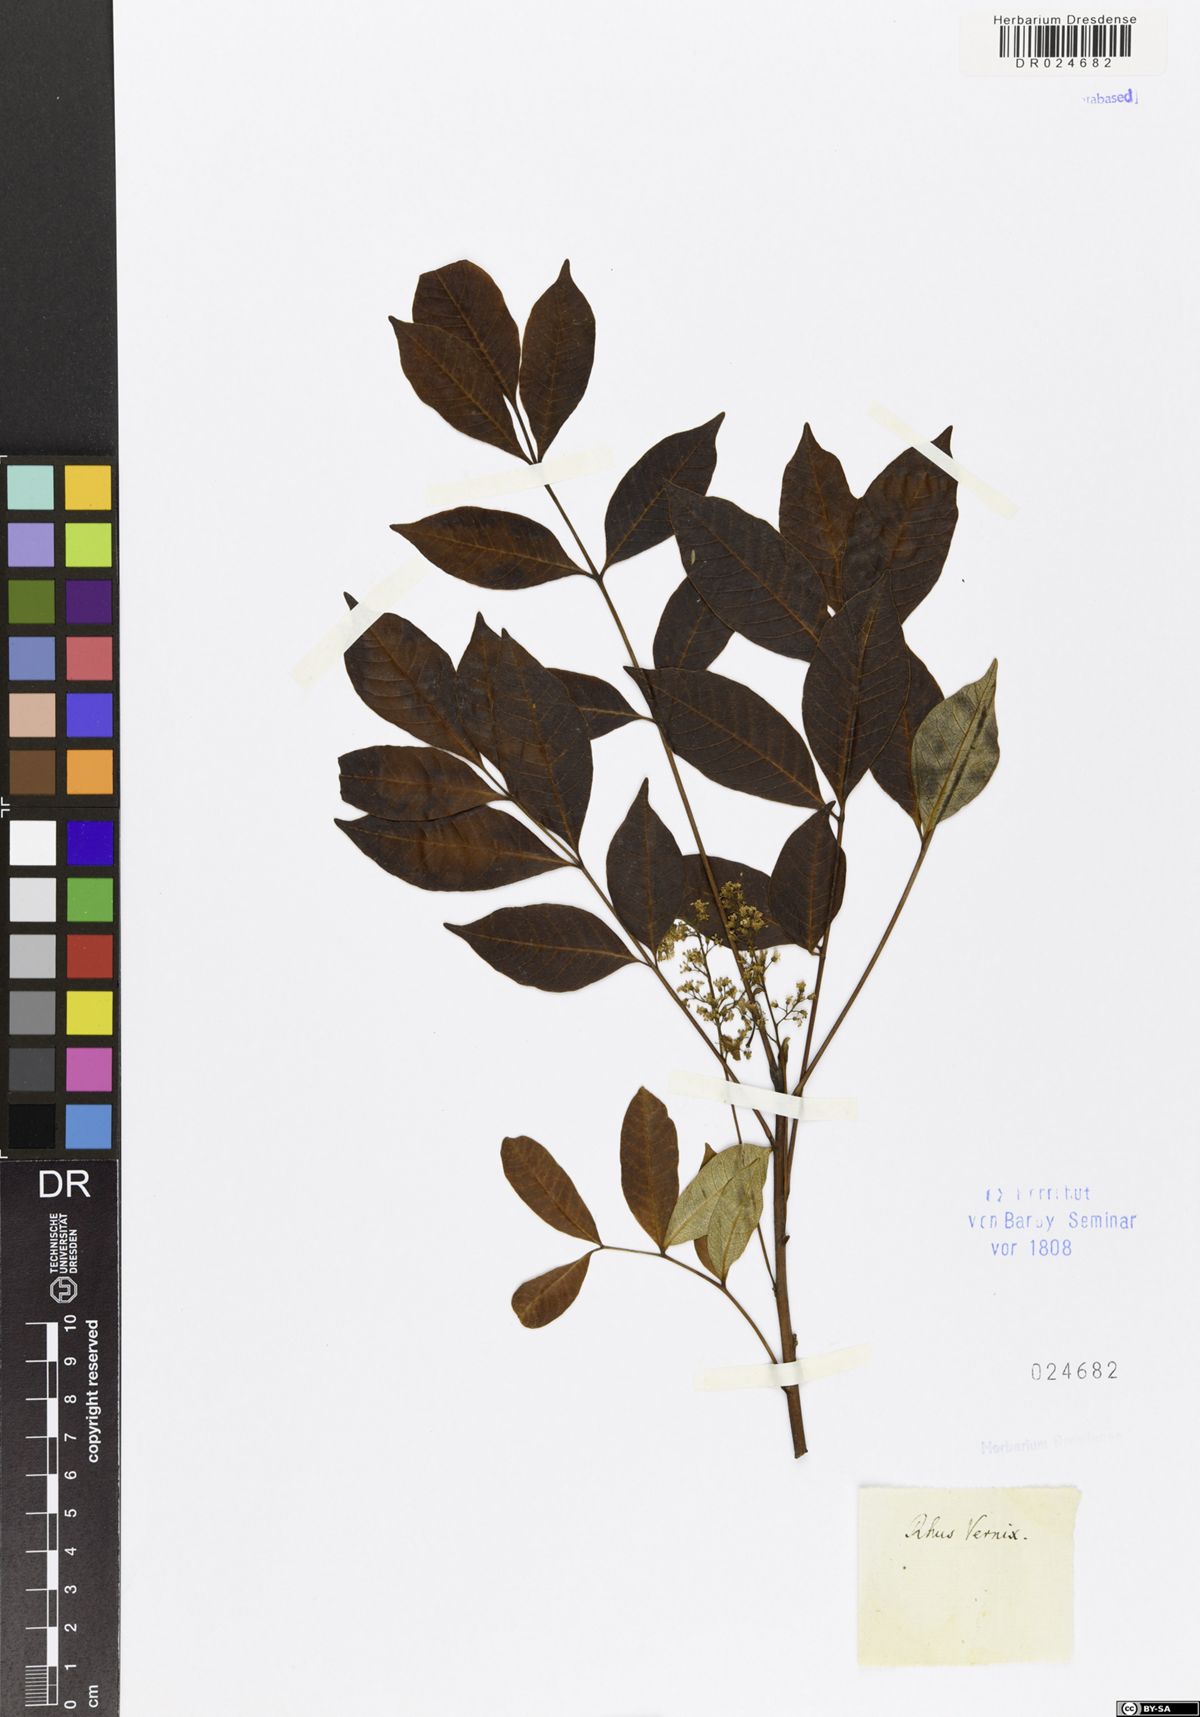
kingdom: Plantae
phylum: Tracheophyta
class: Magnoliopsida
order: Sapindales
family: Anacardiaceae
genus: Toxicodendron
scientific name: Toxicodendron vernix
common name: Poison sumac
